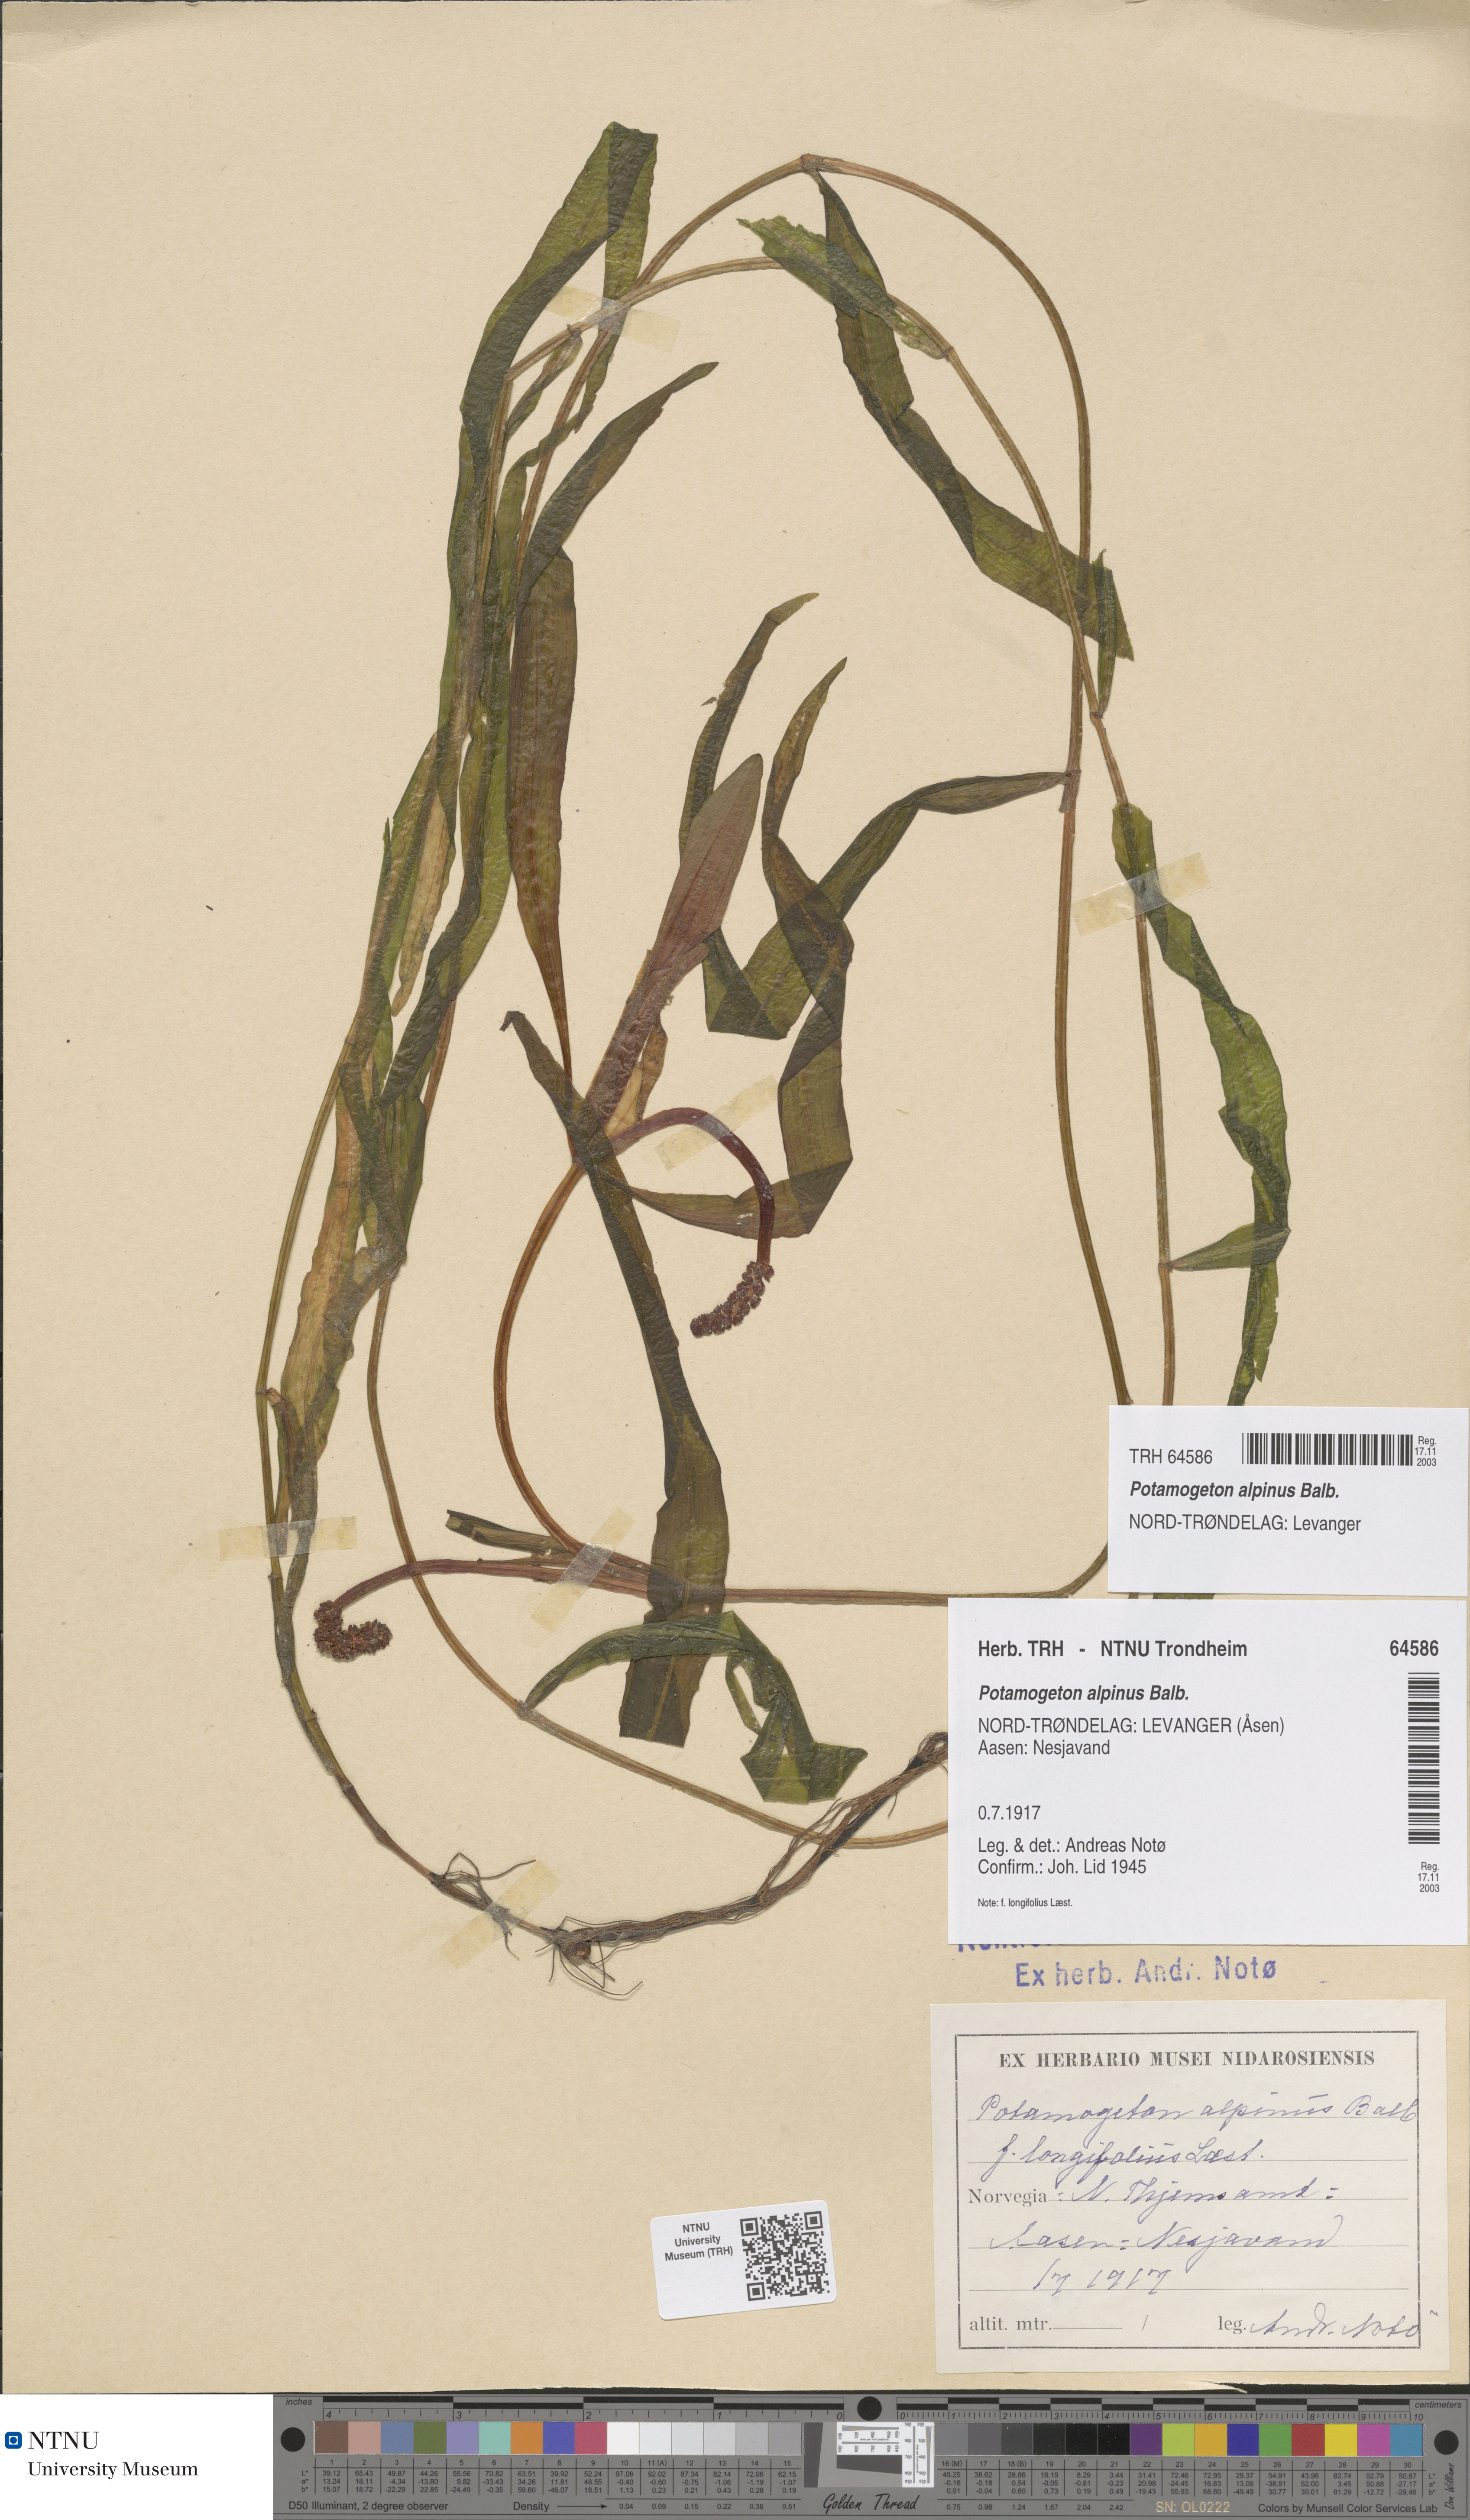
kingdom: Plantae
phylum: Tracheophyta
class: Liliopsida
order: Alismatales
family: Potamogetonaceae
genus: Potamogeton
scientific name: Potamogeton alpinus
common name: Red pondweed
